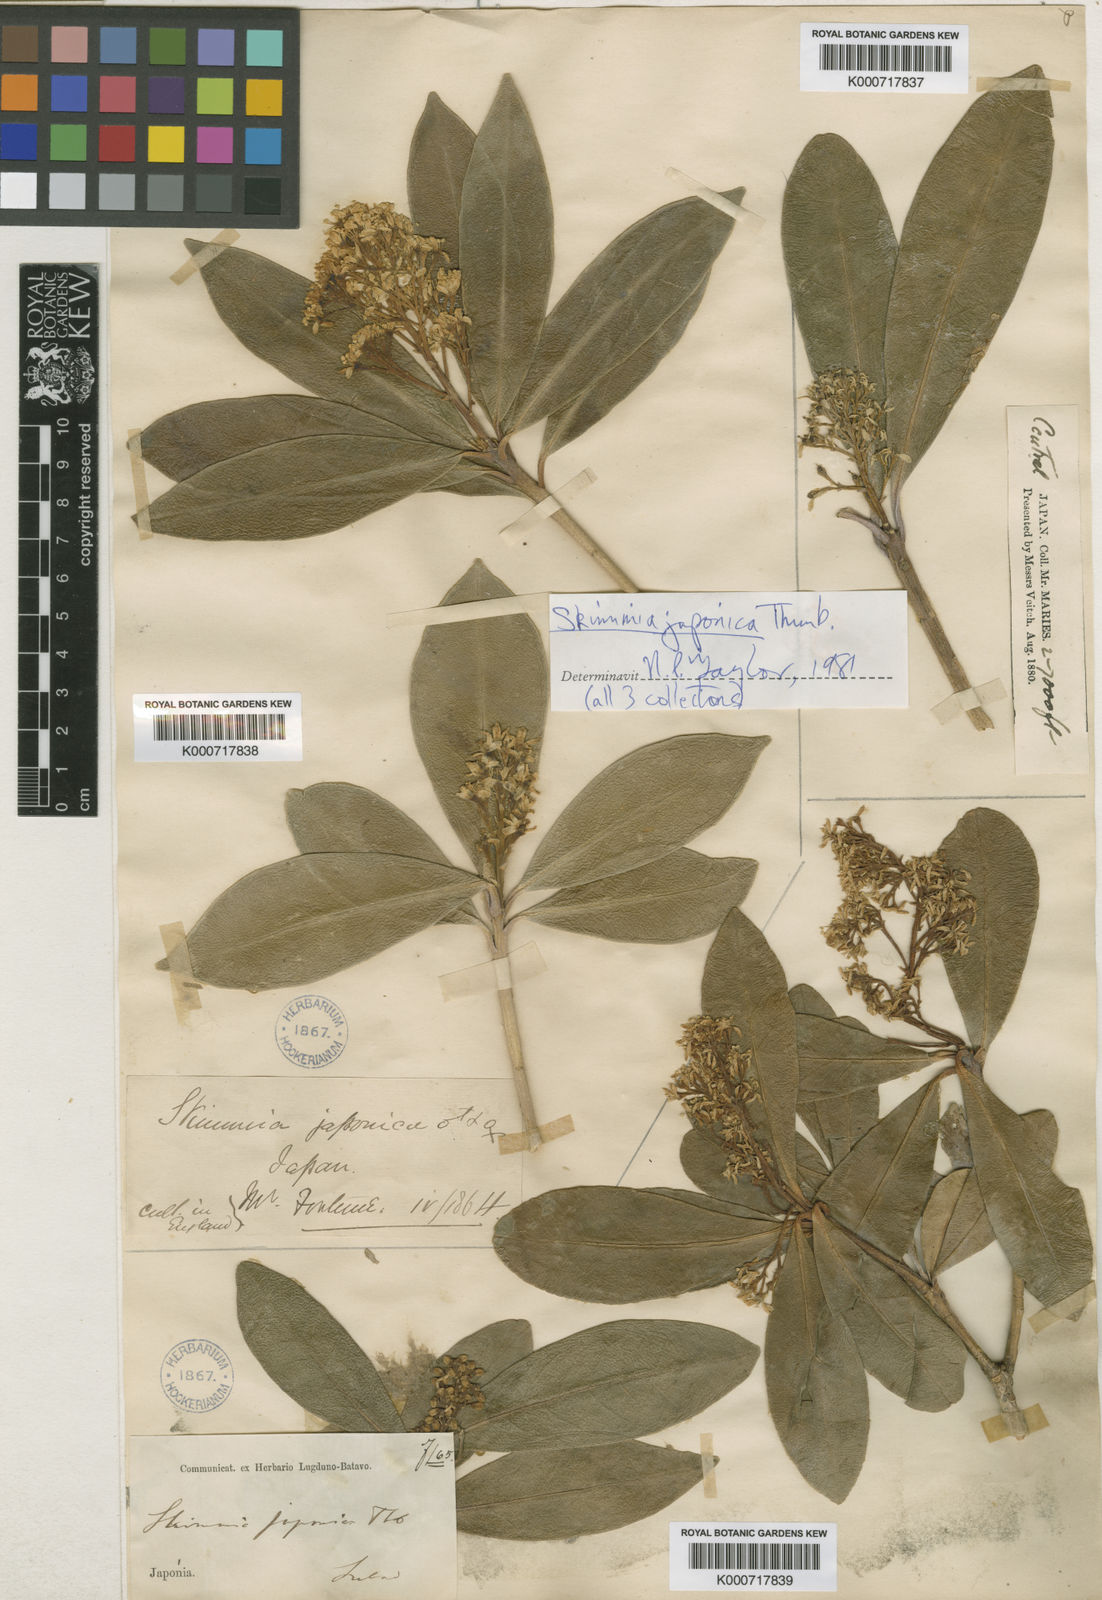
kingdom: Plantae
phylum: Tracheophyta
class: Magnoliopsida
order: Sapindales
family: Rutaceae
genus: Skimmia
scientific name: Skimmia japonica
